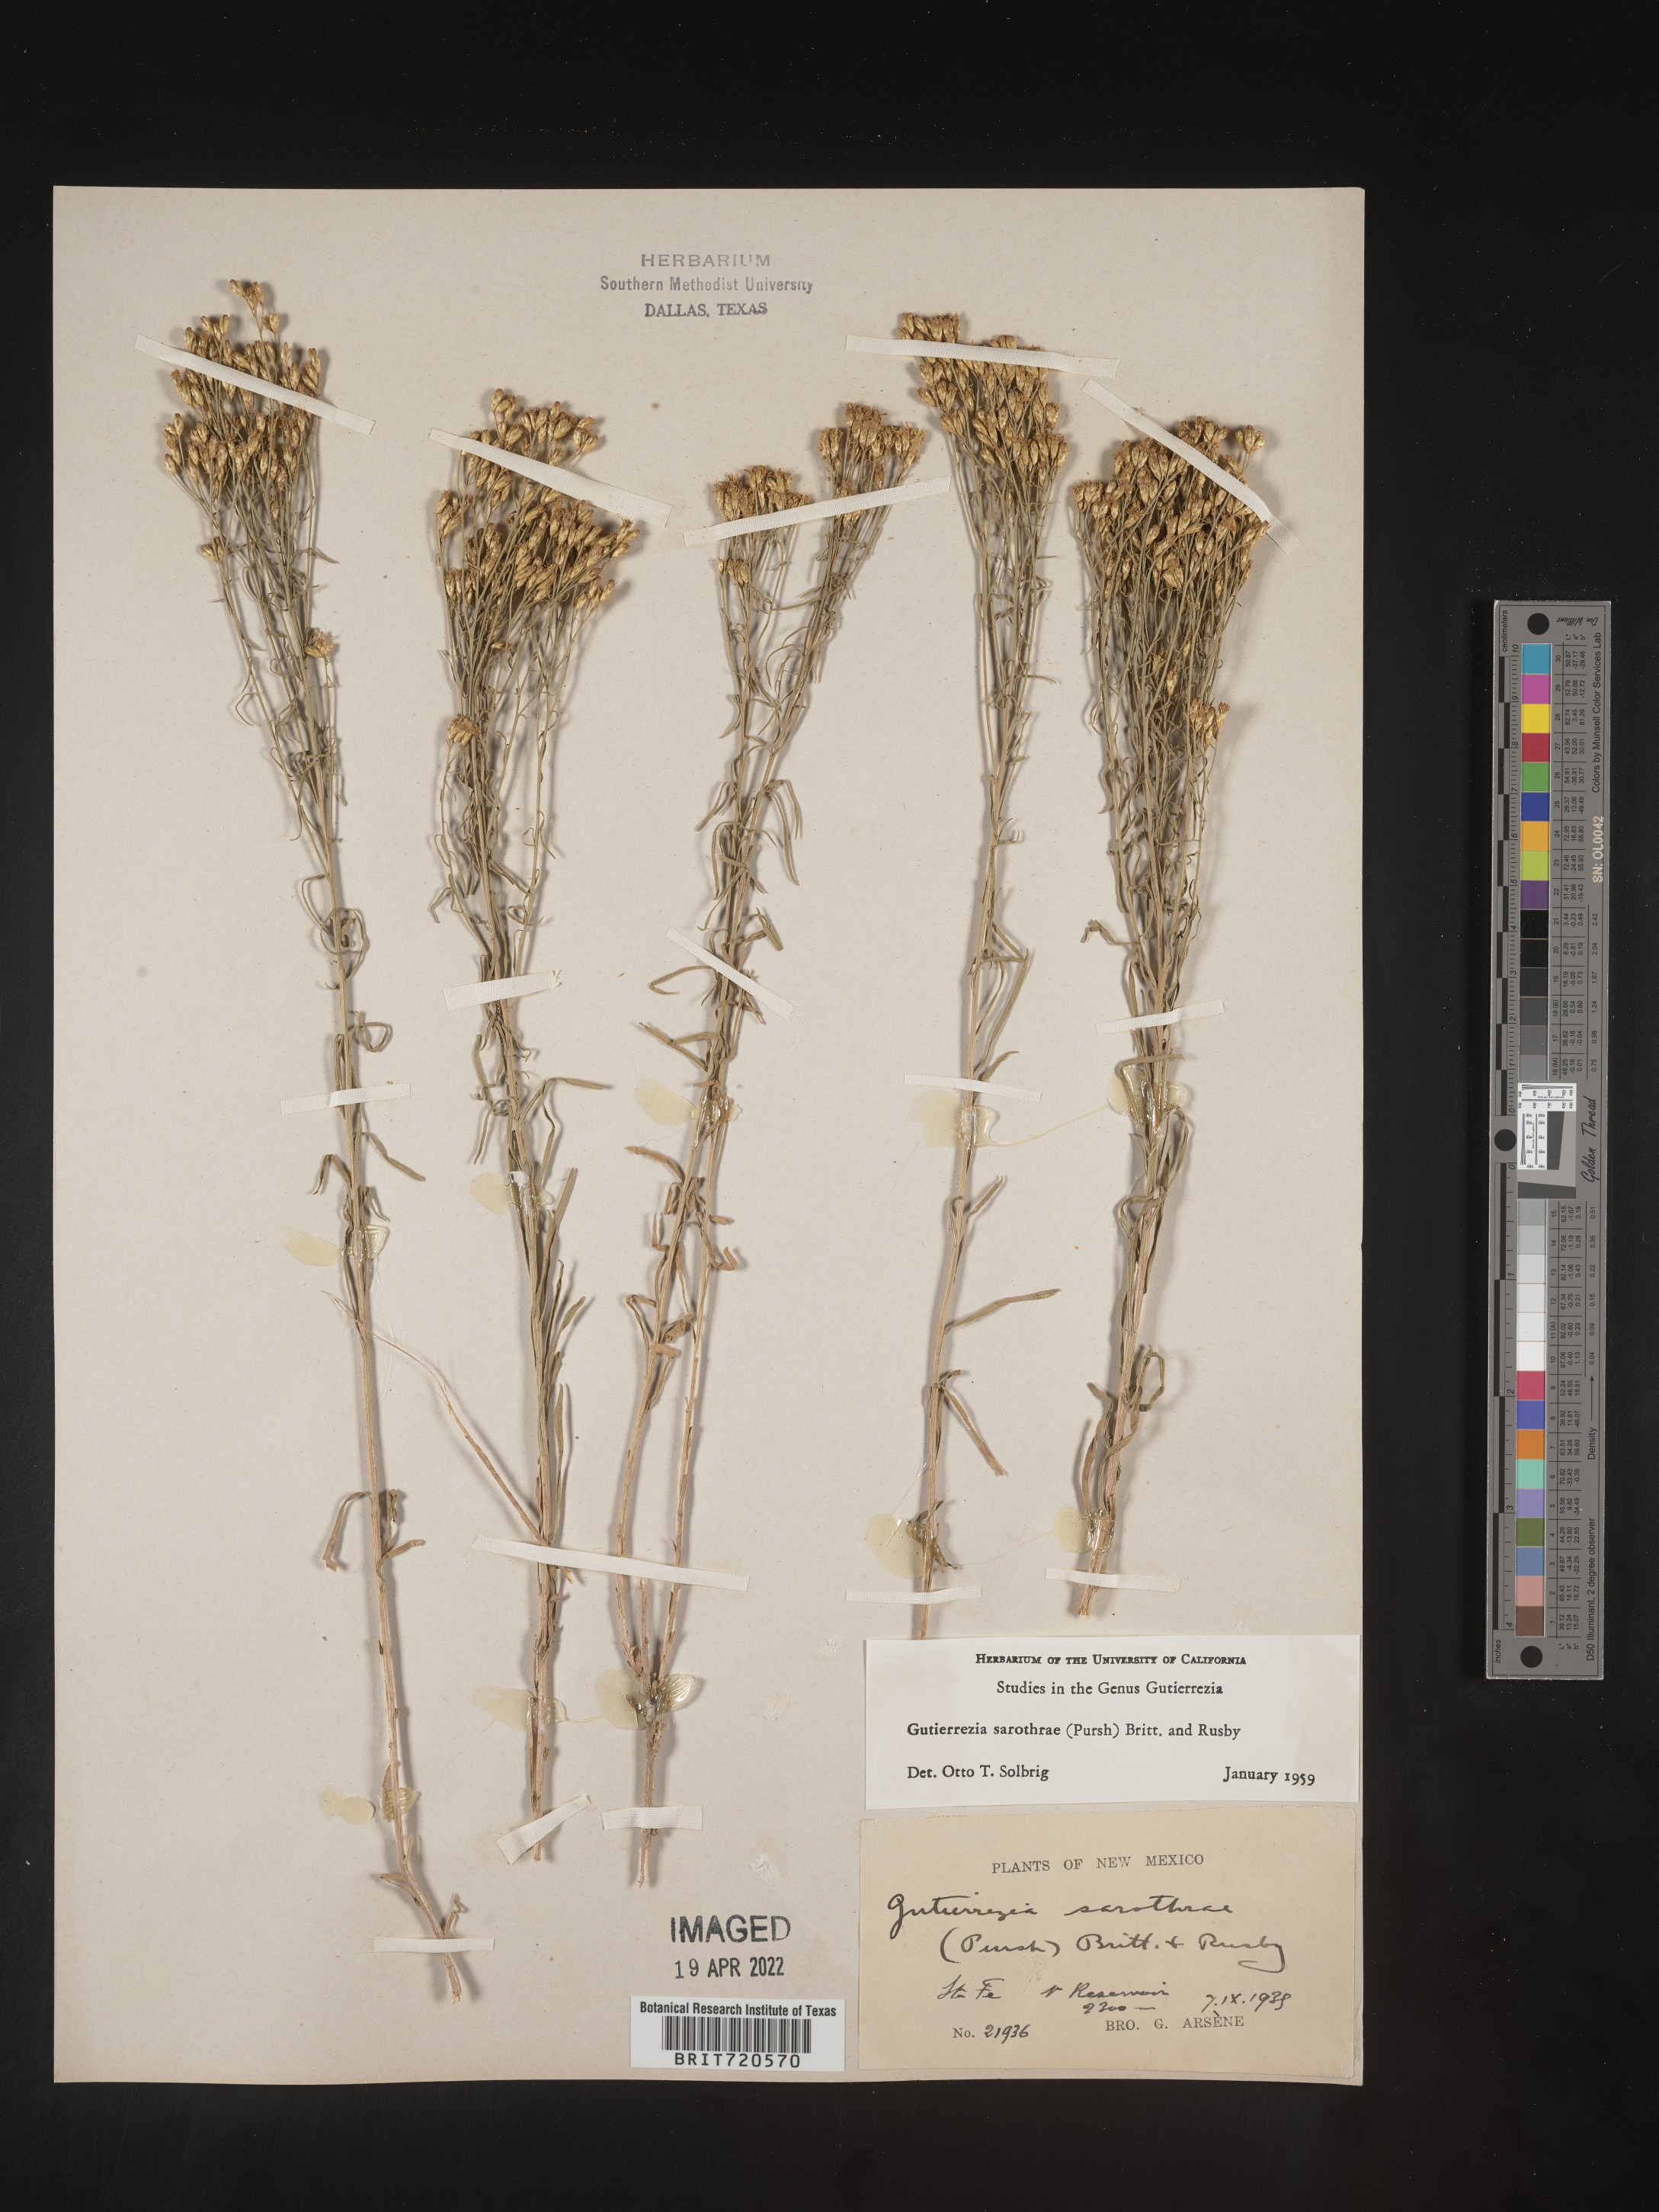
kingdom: Plantae
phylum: Tracheophyta
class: Magnoliopsida
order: Asterales
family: Asteraceae
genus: Gutierrezia
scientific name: Gutierrezia sarothrae
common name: Broom snakeweed
